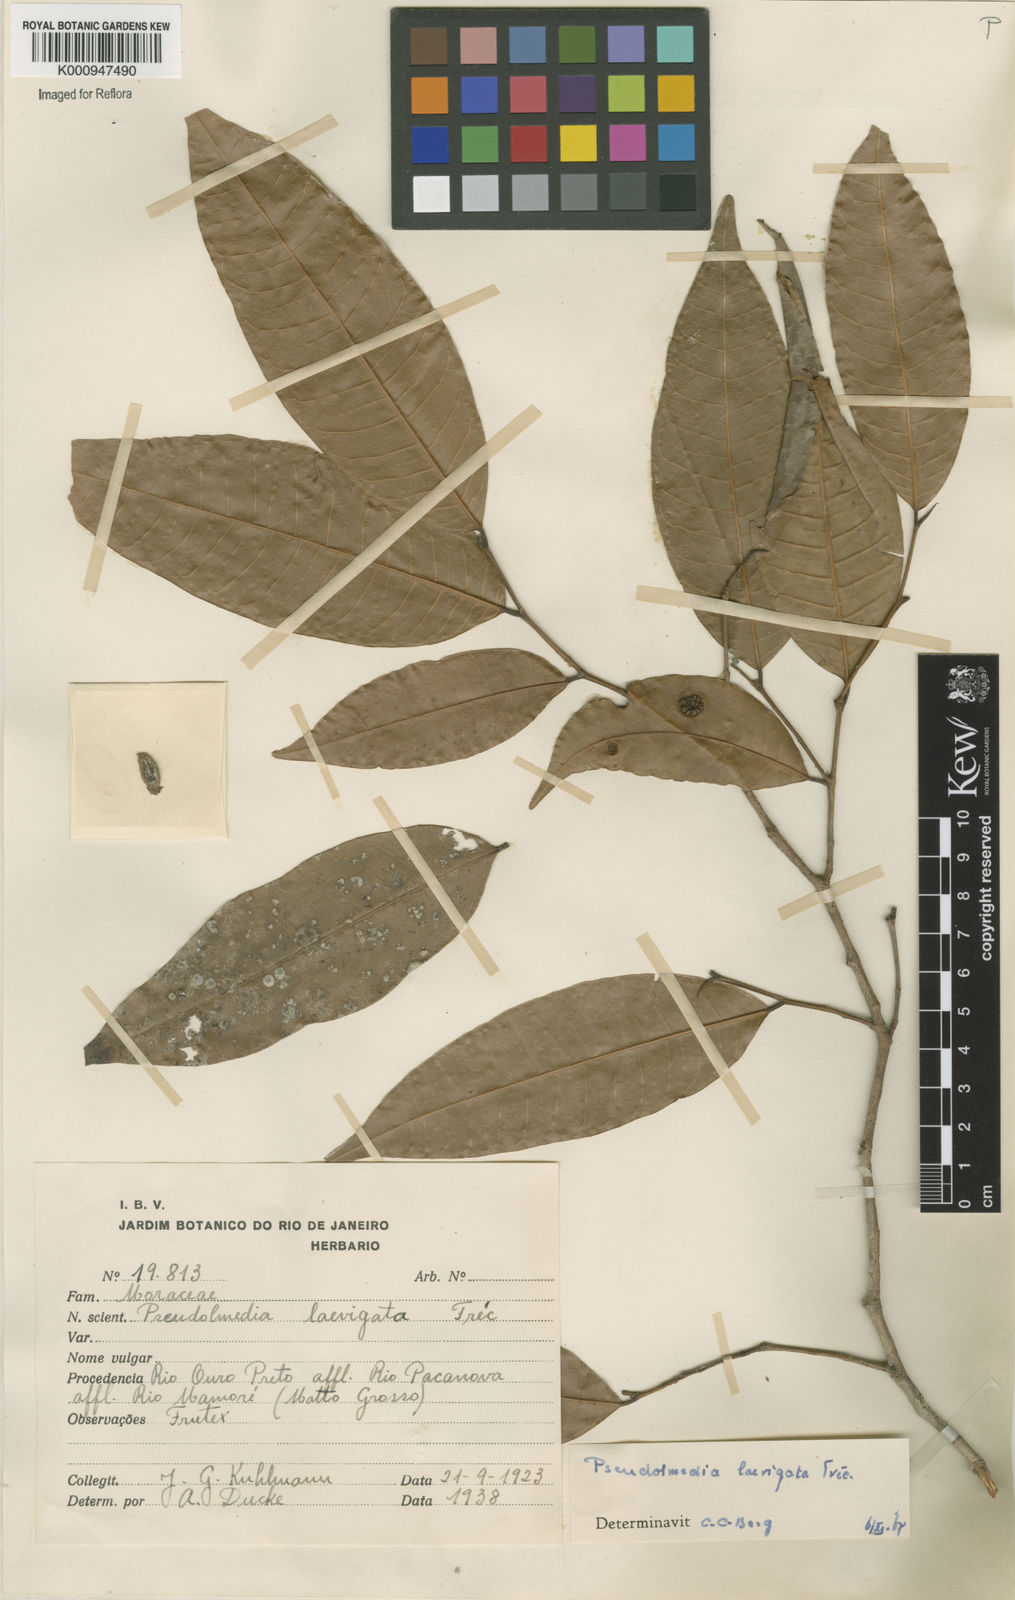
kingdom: Plantae
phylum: Tracheophyta
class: Magnoliopsida
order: Rosales
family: Moraceae
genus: Pseudolmedia
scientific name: Pseudolmedia
